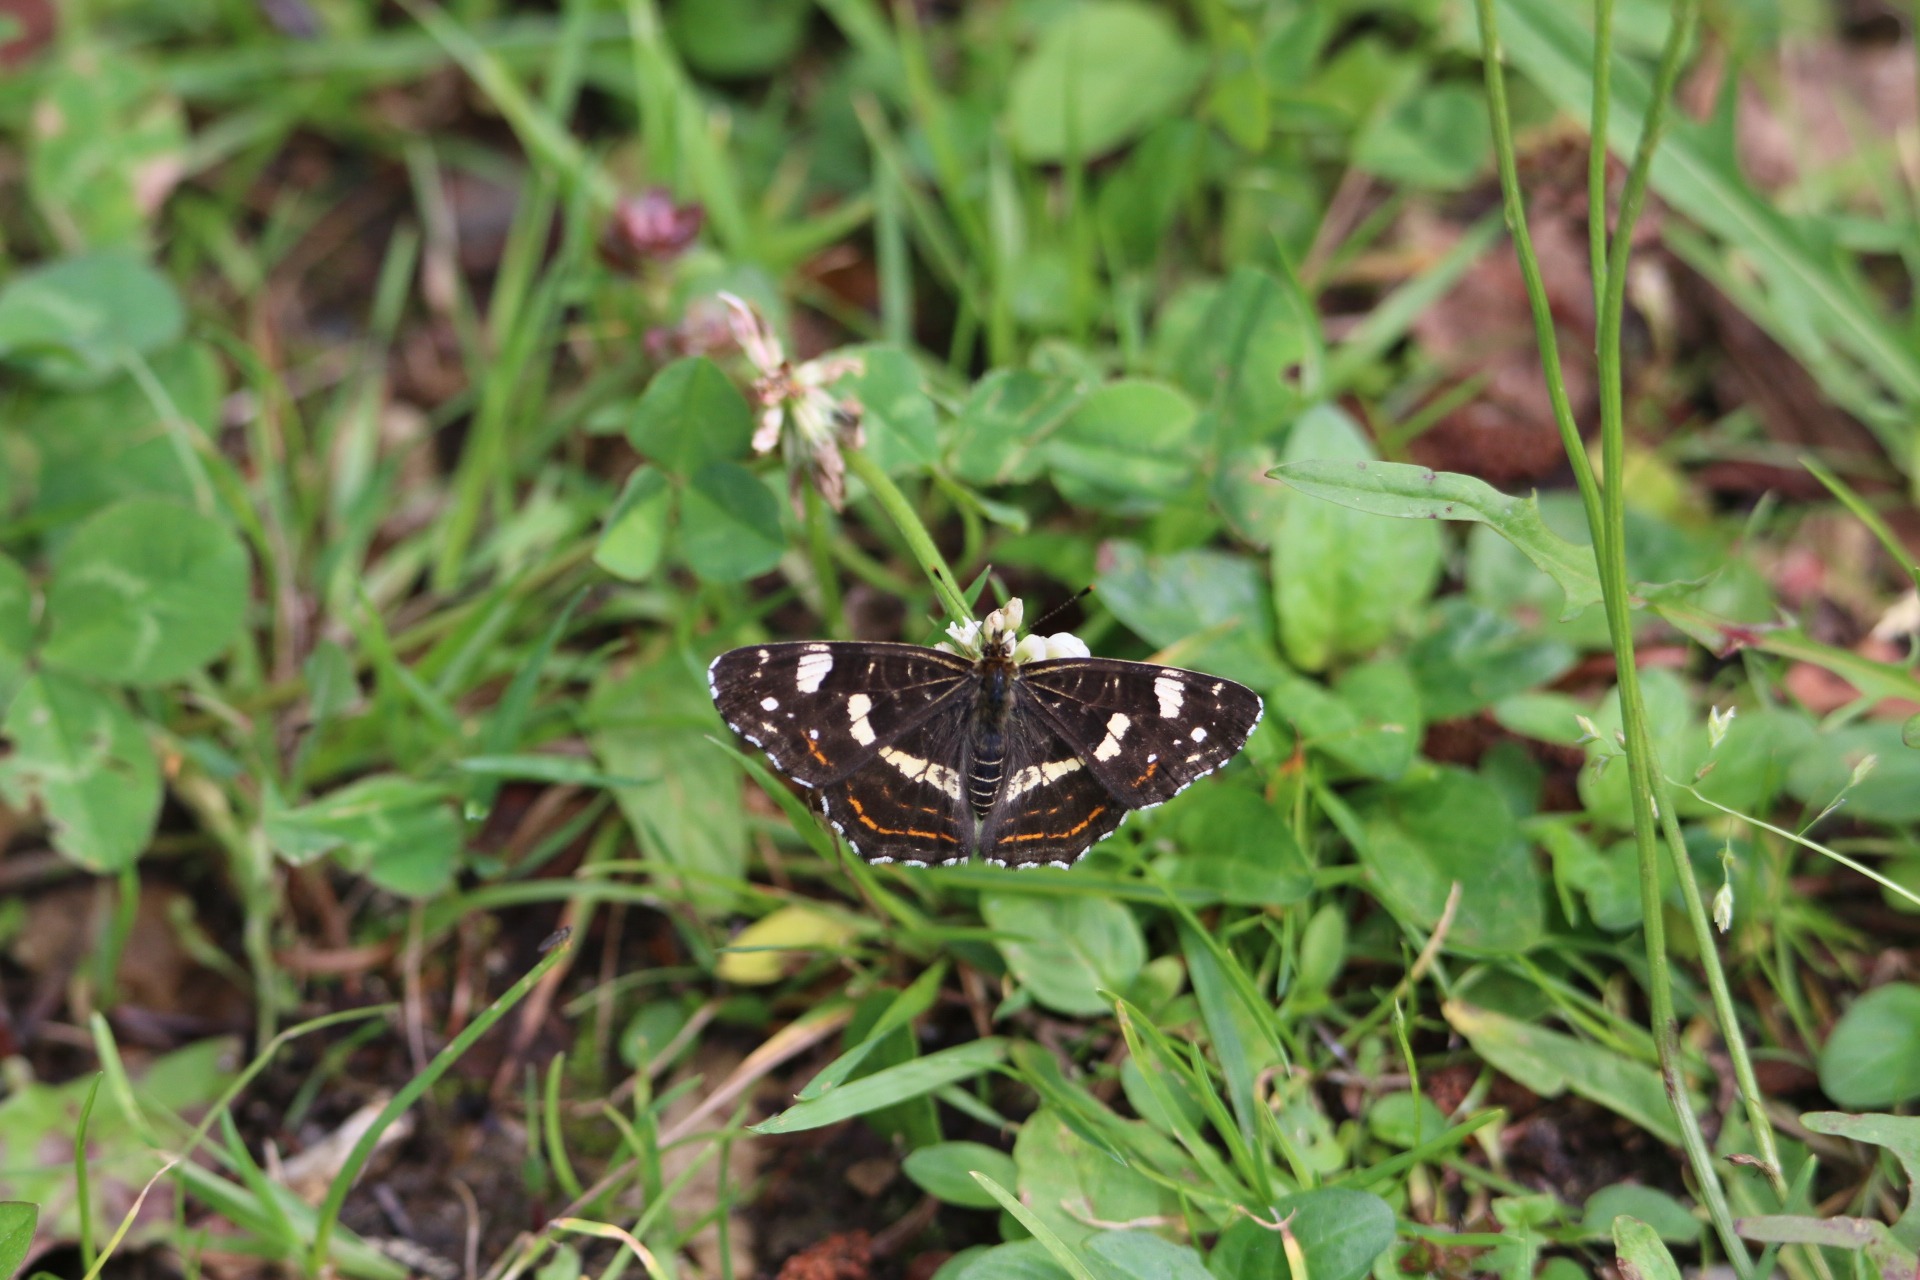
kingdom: Animalia
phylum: Arthropoda
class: Insecta
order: Lepidoptera
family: Nymphalidae
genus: Araschnia
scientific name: Araschnia levana
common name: Nældesommerfugl
